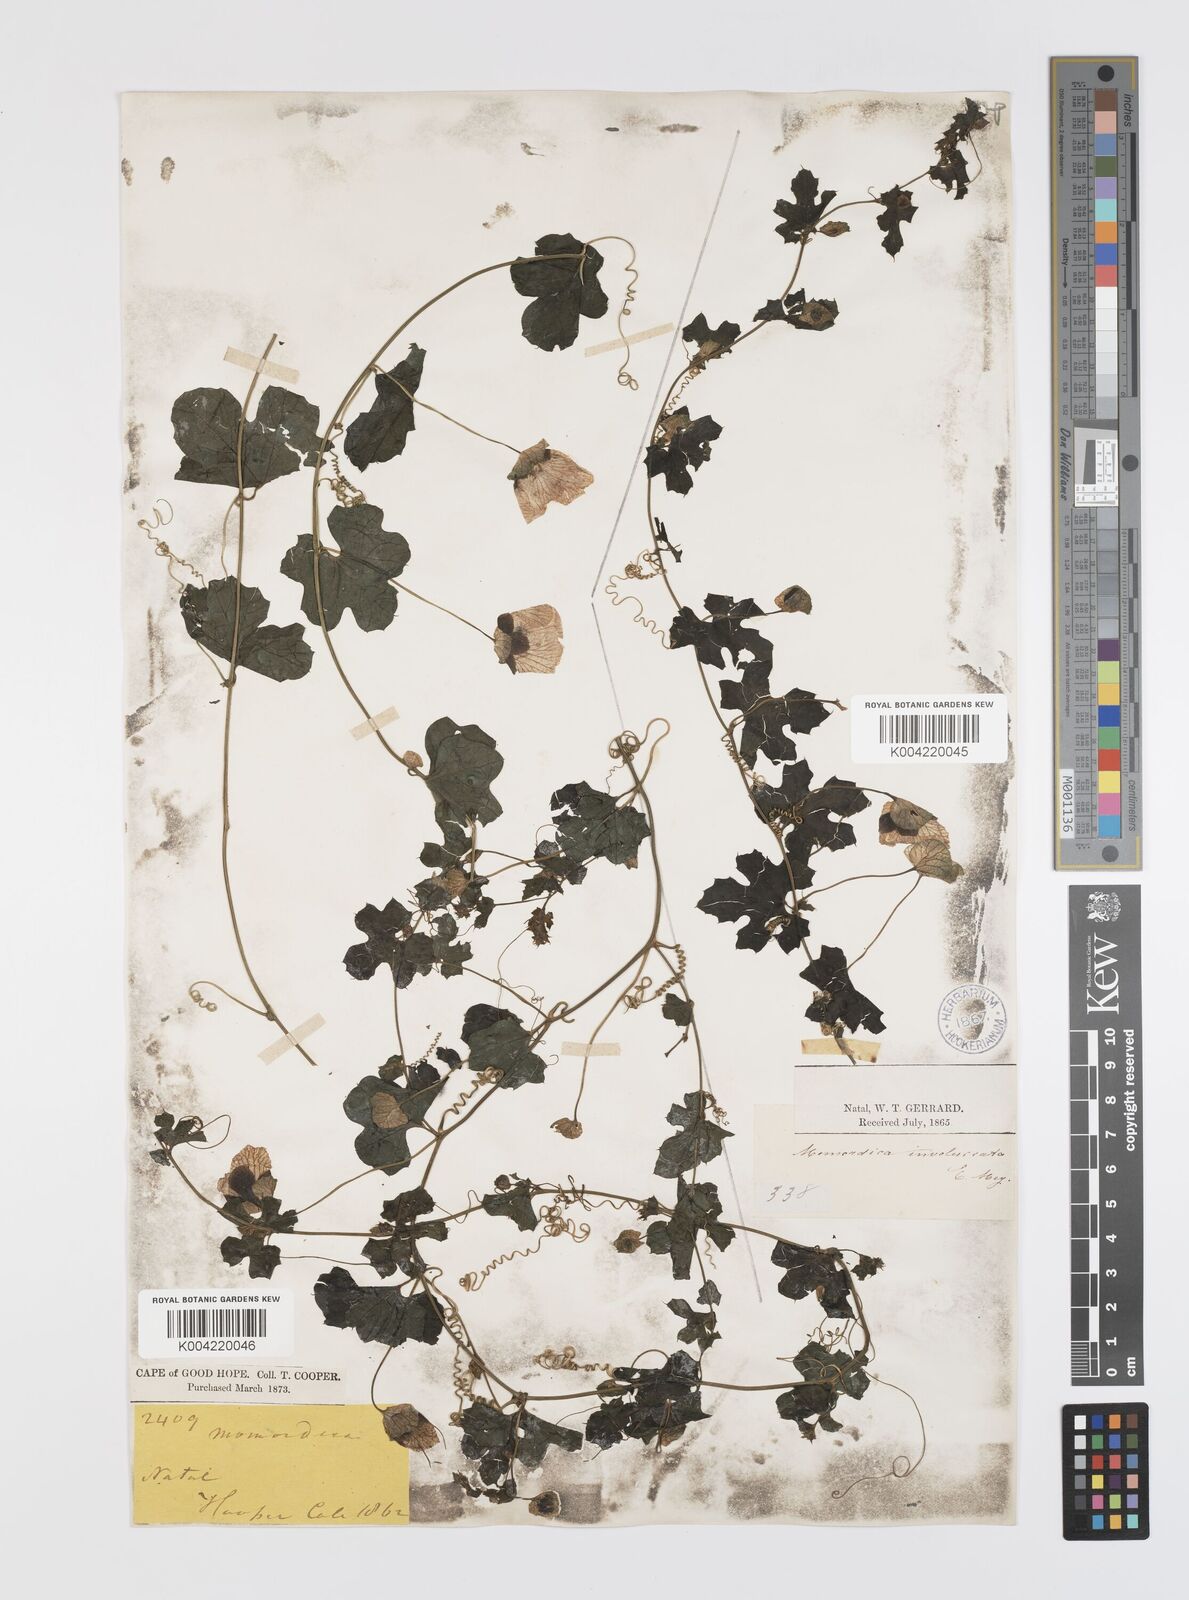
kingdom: Plantae
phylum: Tracheophyta
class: Magnoliopsida
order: Cucurbitales
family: Cucurbitaceae
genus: Momordica
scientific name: Momordica balsamina
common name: Southern balsampear
